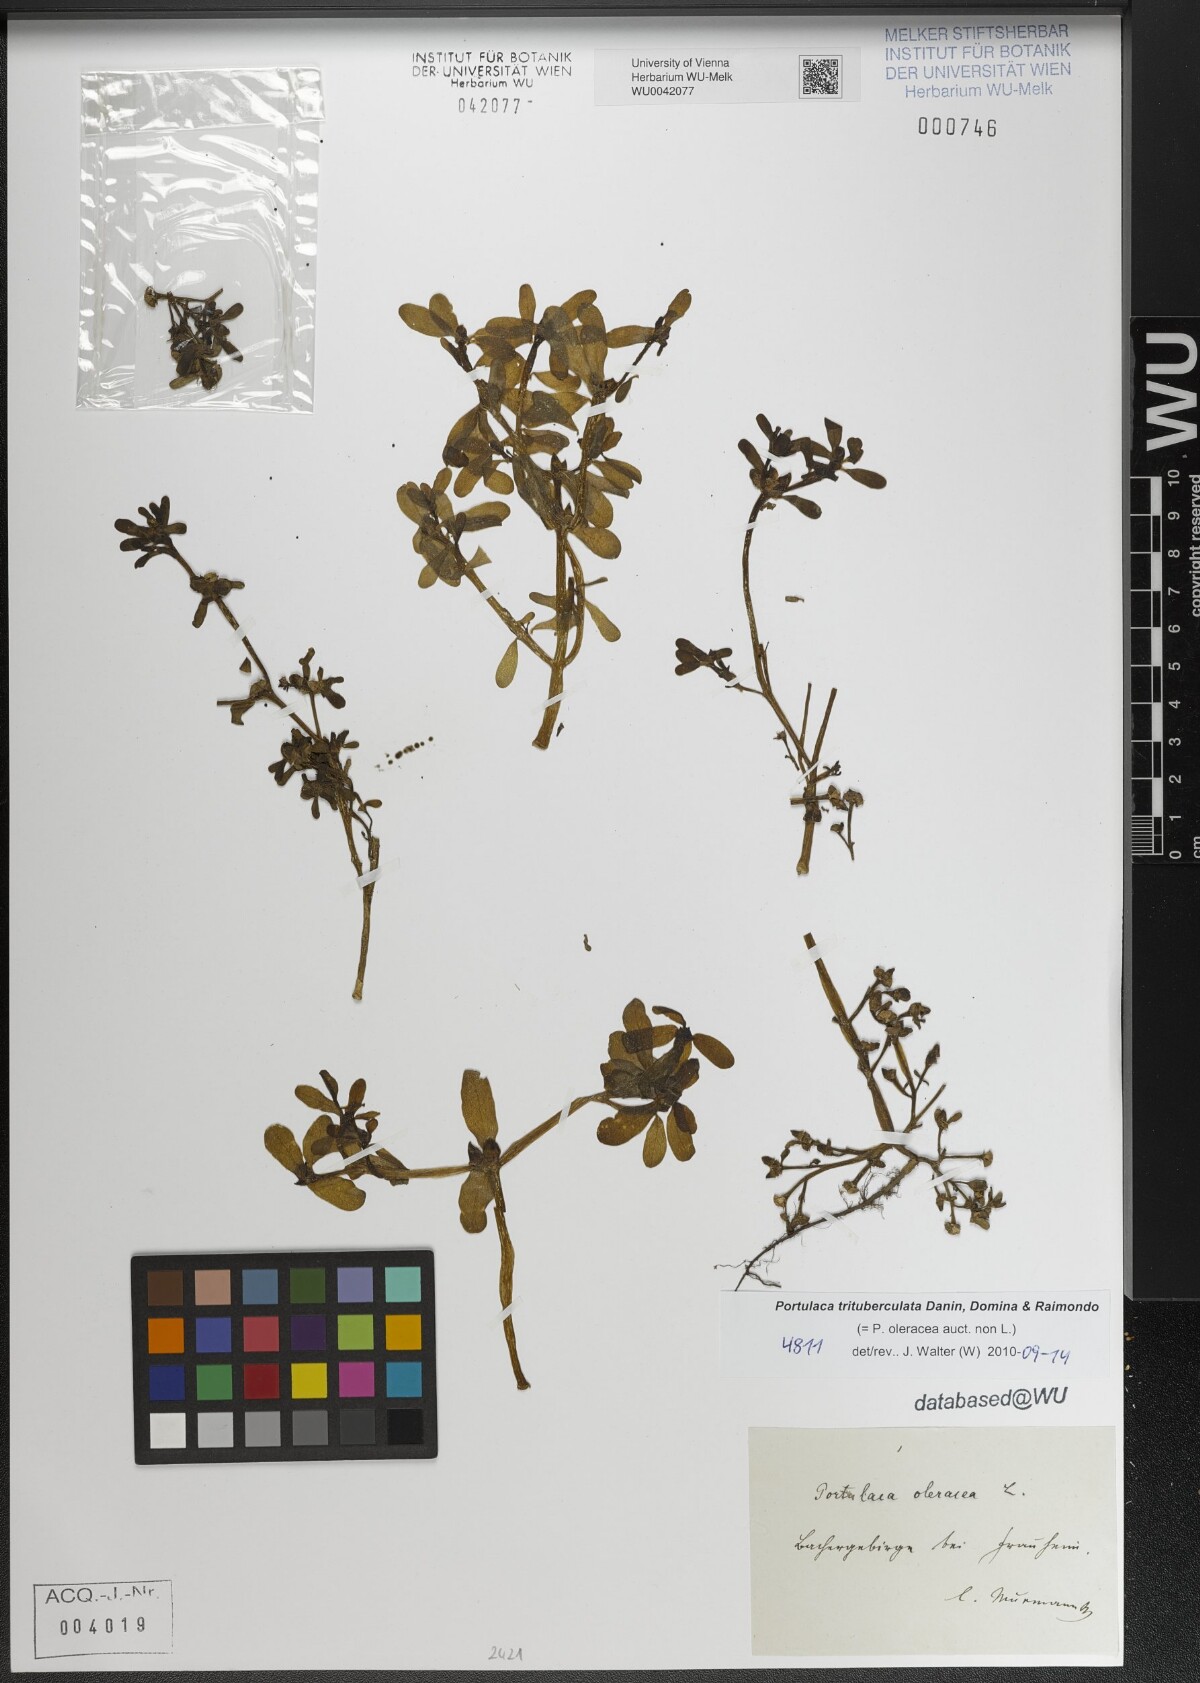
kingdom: Plantae
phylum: Tracheophyta
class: Magnoliopsida
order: Caryophyllales
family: Portulacaceae
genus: Portulaca
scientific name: Portulaca trituberculata
